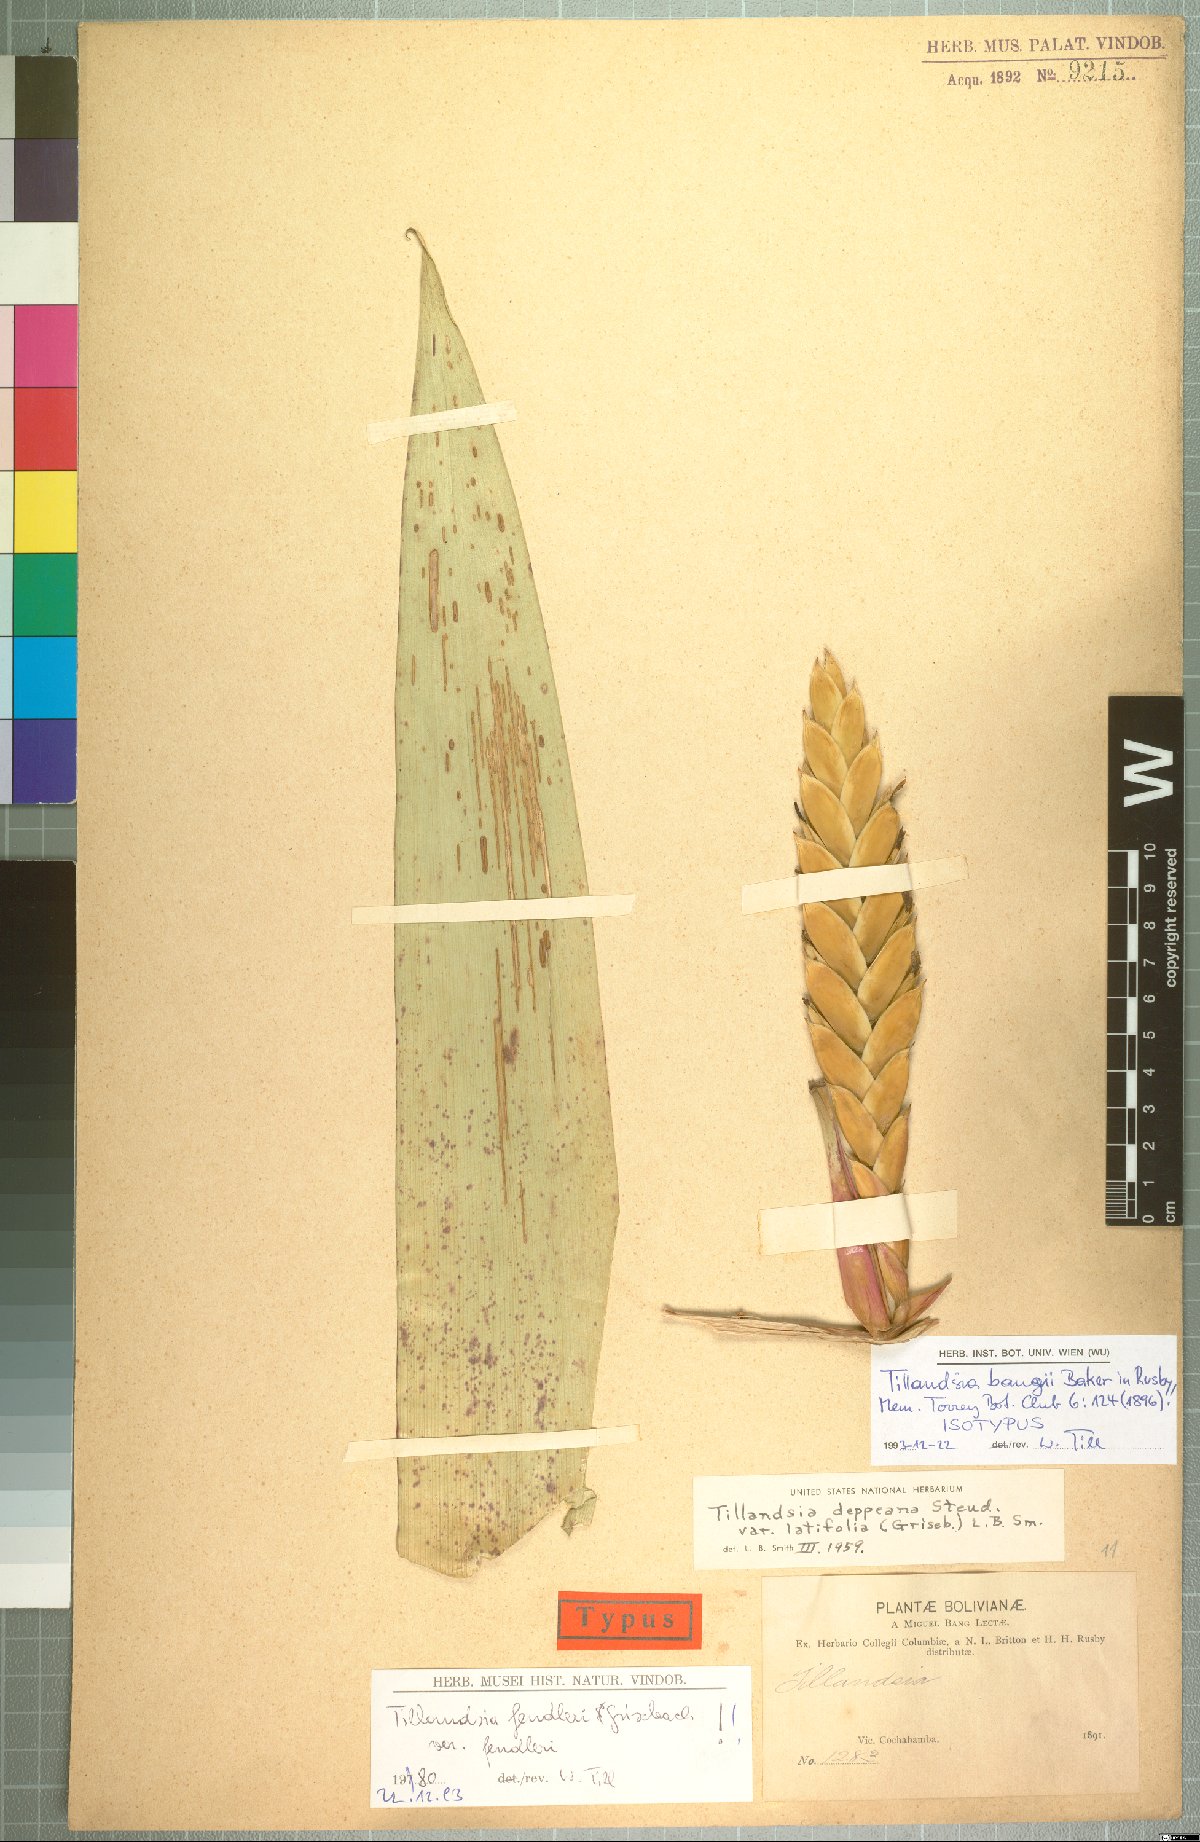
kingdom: Plantae
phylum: Tracheophyta
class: Liliopsida
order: Poales
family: Bromeliaceae
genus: Tillandsia
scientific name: Tillandsia fendleri
